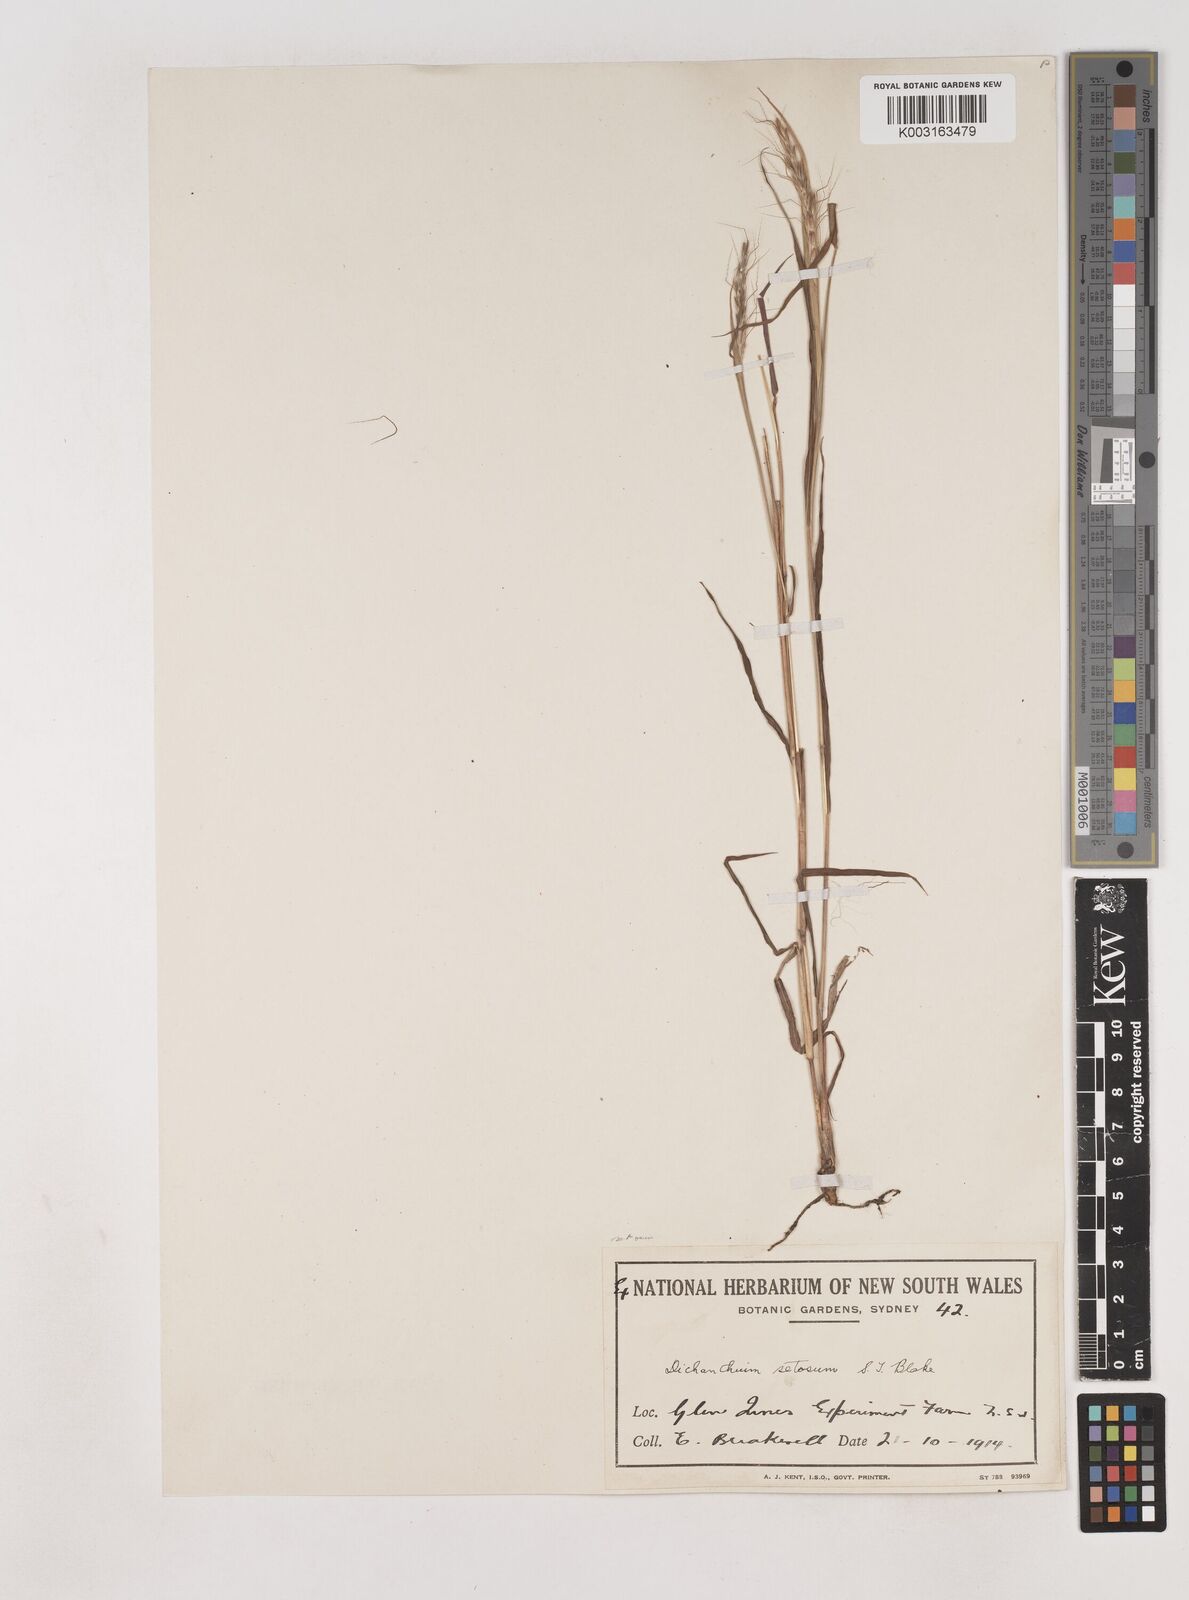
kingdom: Plantae
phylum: Tracheophyta
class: Liliopsida
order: Poales
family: Poaceae
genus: Dichanthium
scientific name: Dichanthium setosum
